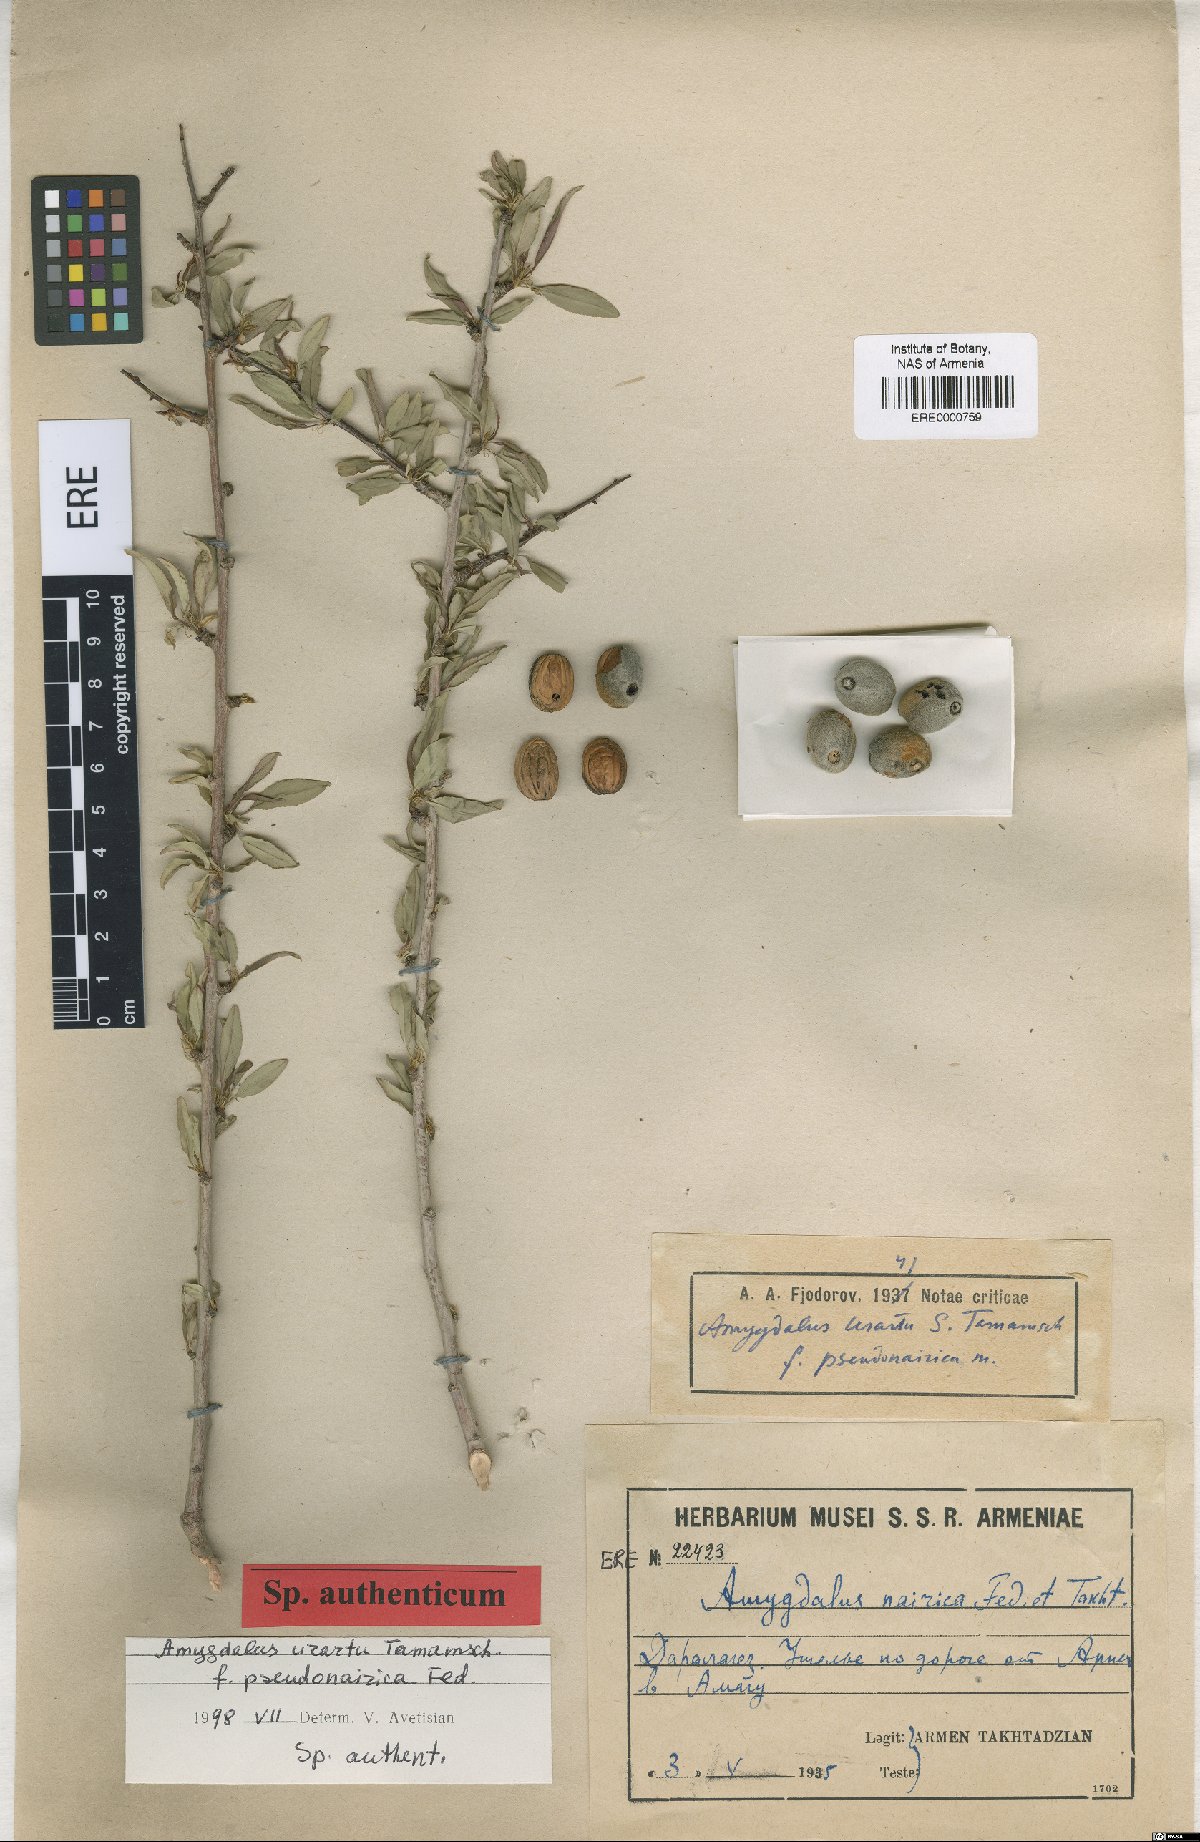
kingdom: Plantae
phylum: Tracheophyta
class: Magnoliopsida
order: Rosales
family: Rosaceae
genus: Prunus
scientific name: Prunus urartu
